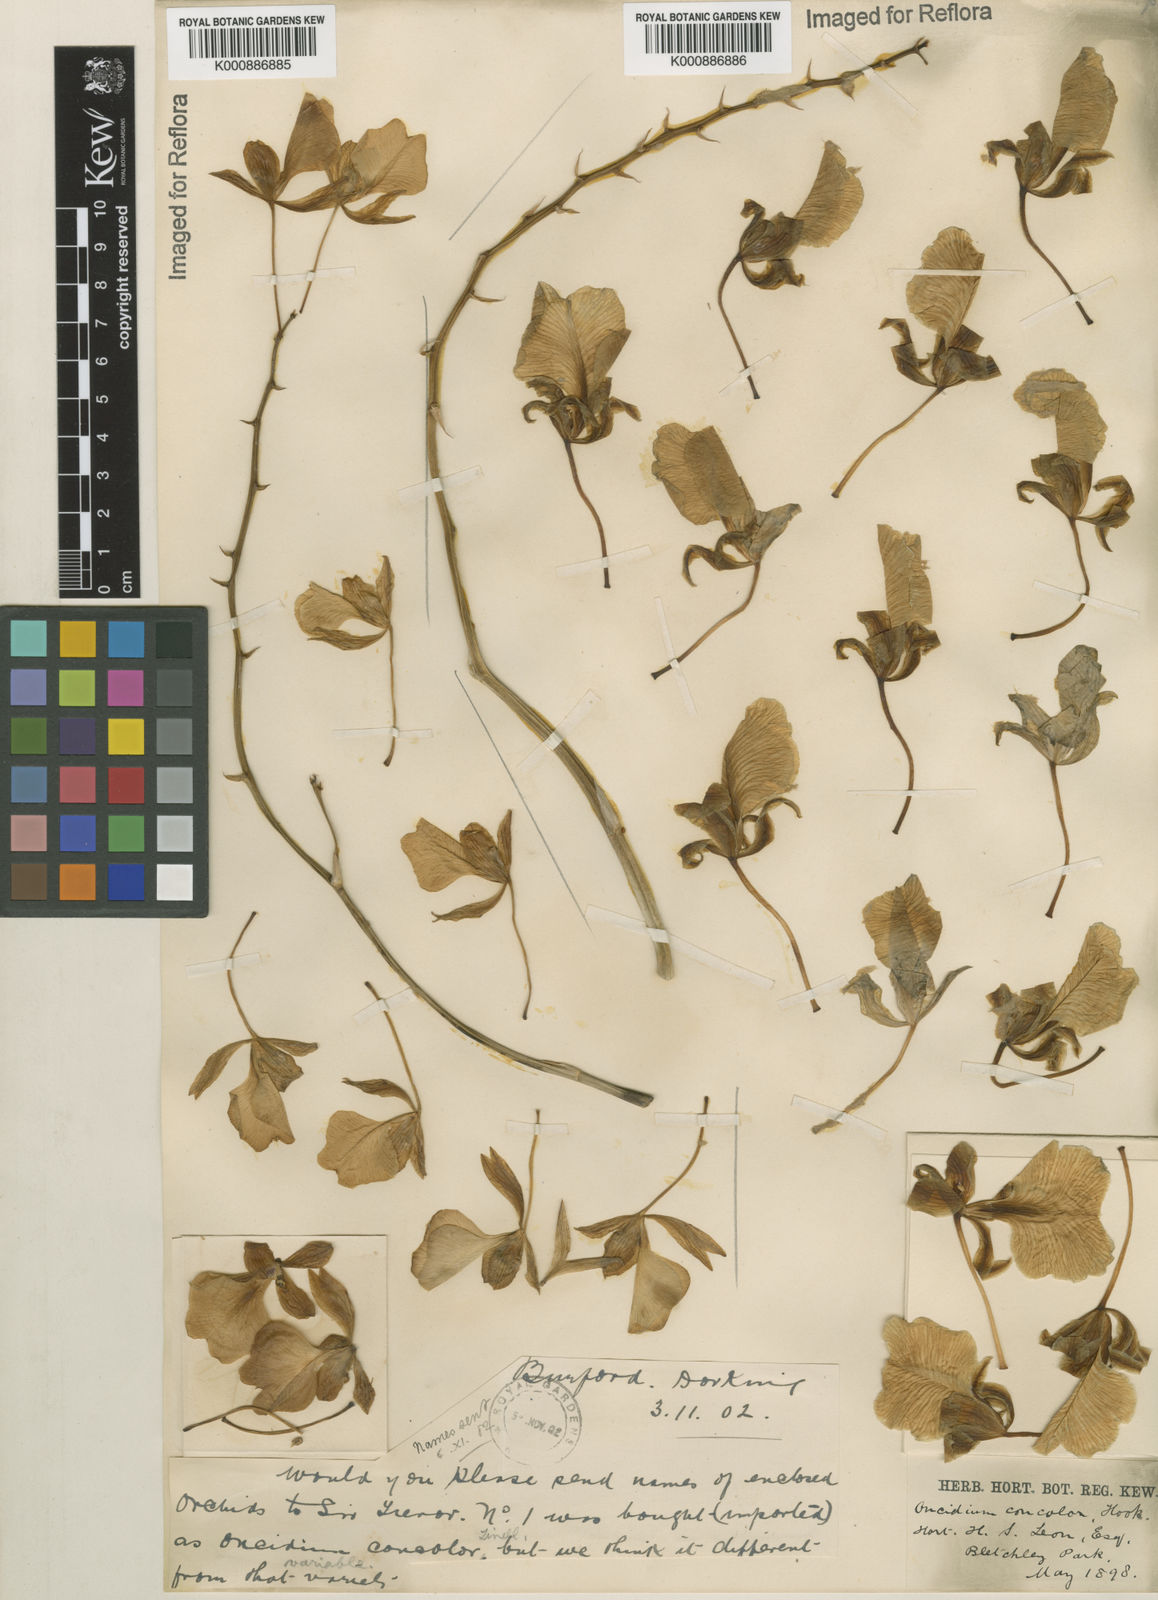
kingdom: Plantae
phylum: Tracheophyta
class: Liliopsida
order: Asparagales
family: Orchidaceae
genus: Gomesa
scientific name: Gomesa concolor
